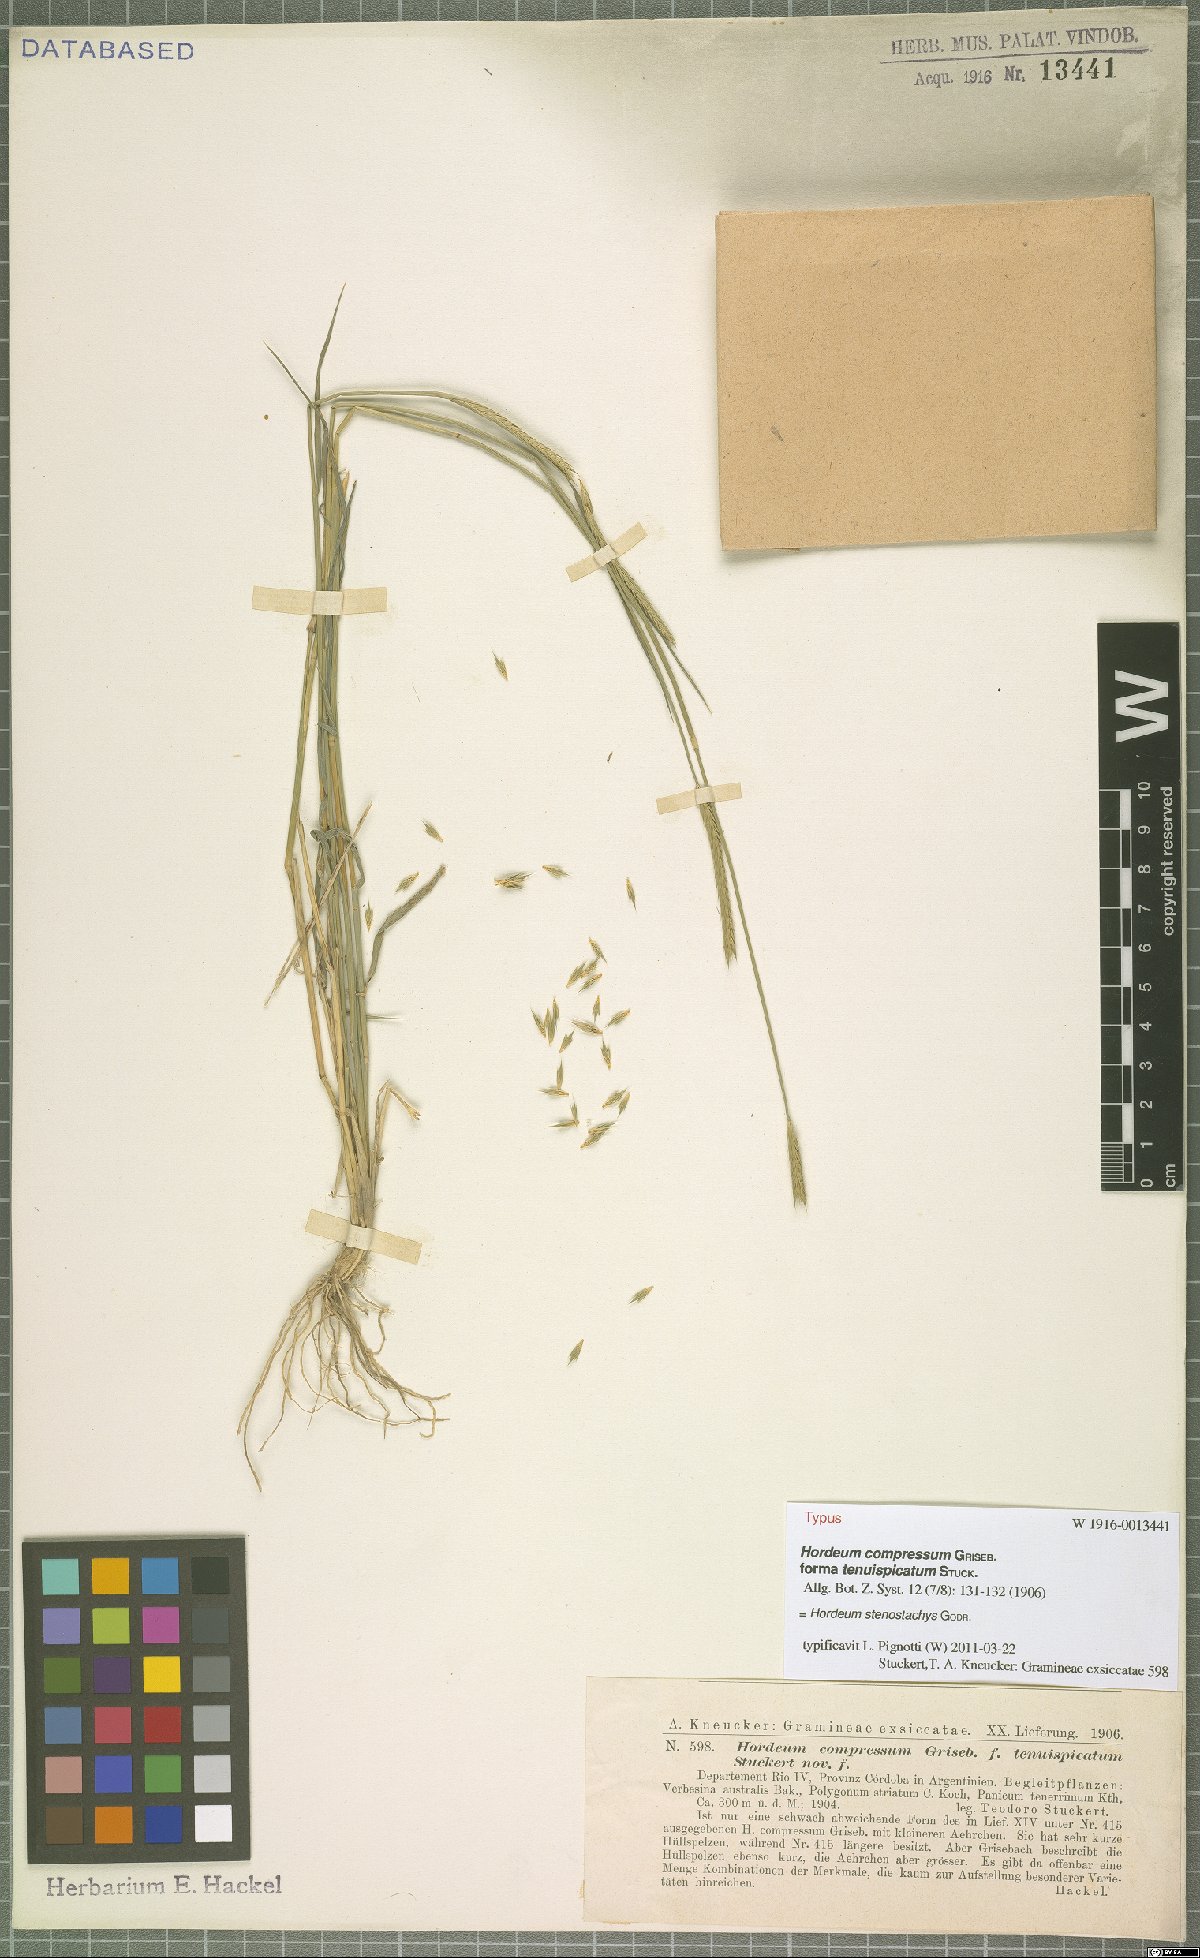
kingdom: Plantae
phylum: Tracheophyta
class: Liliopsida
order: Poales
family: Poaceae
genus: Hordeum
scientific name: Hordeum stenostachys
